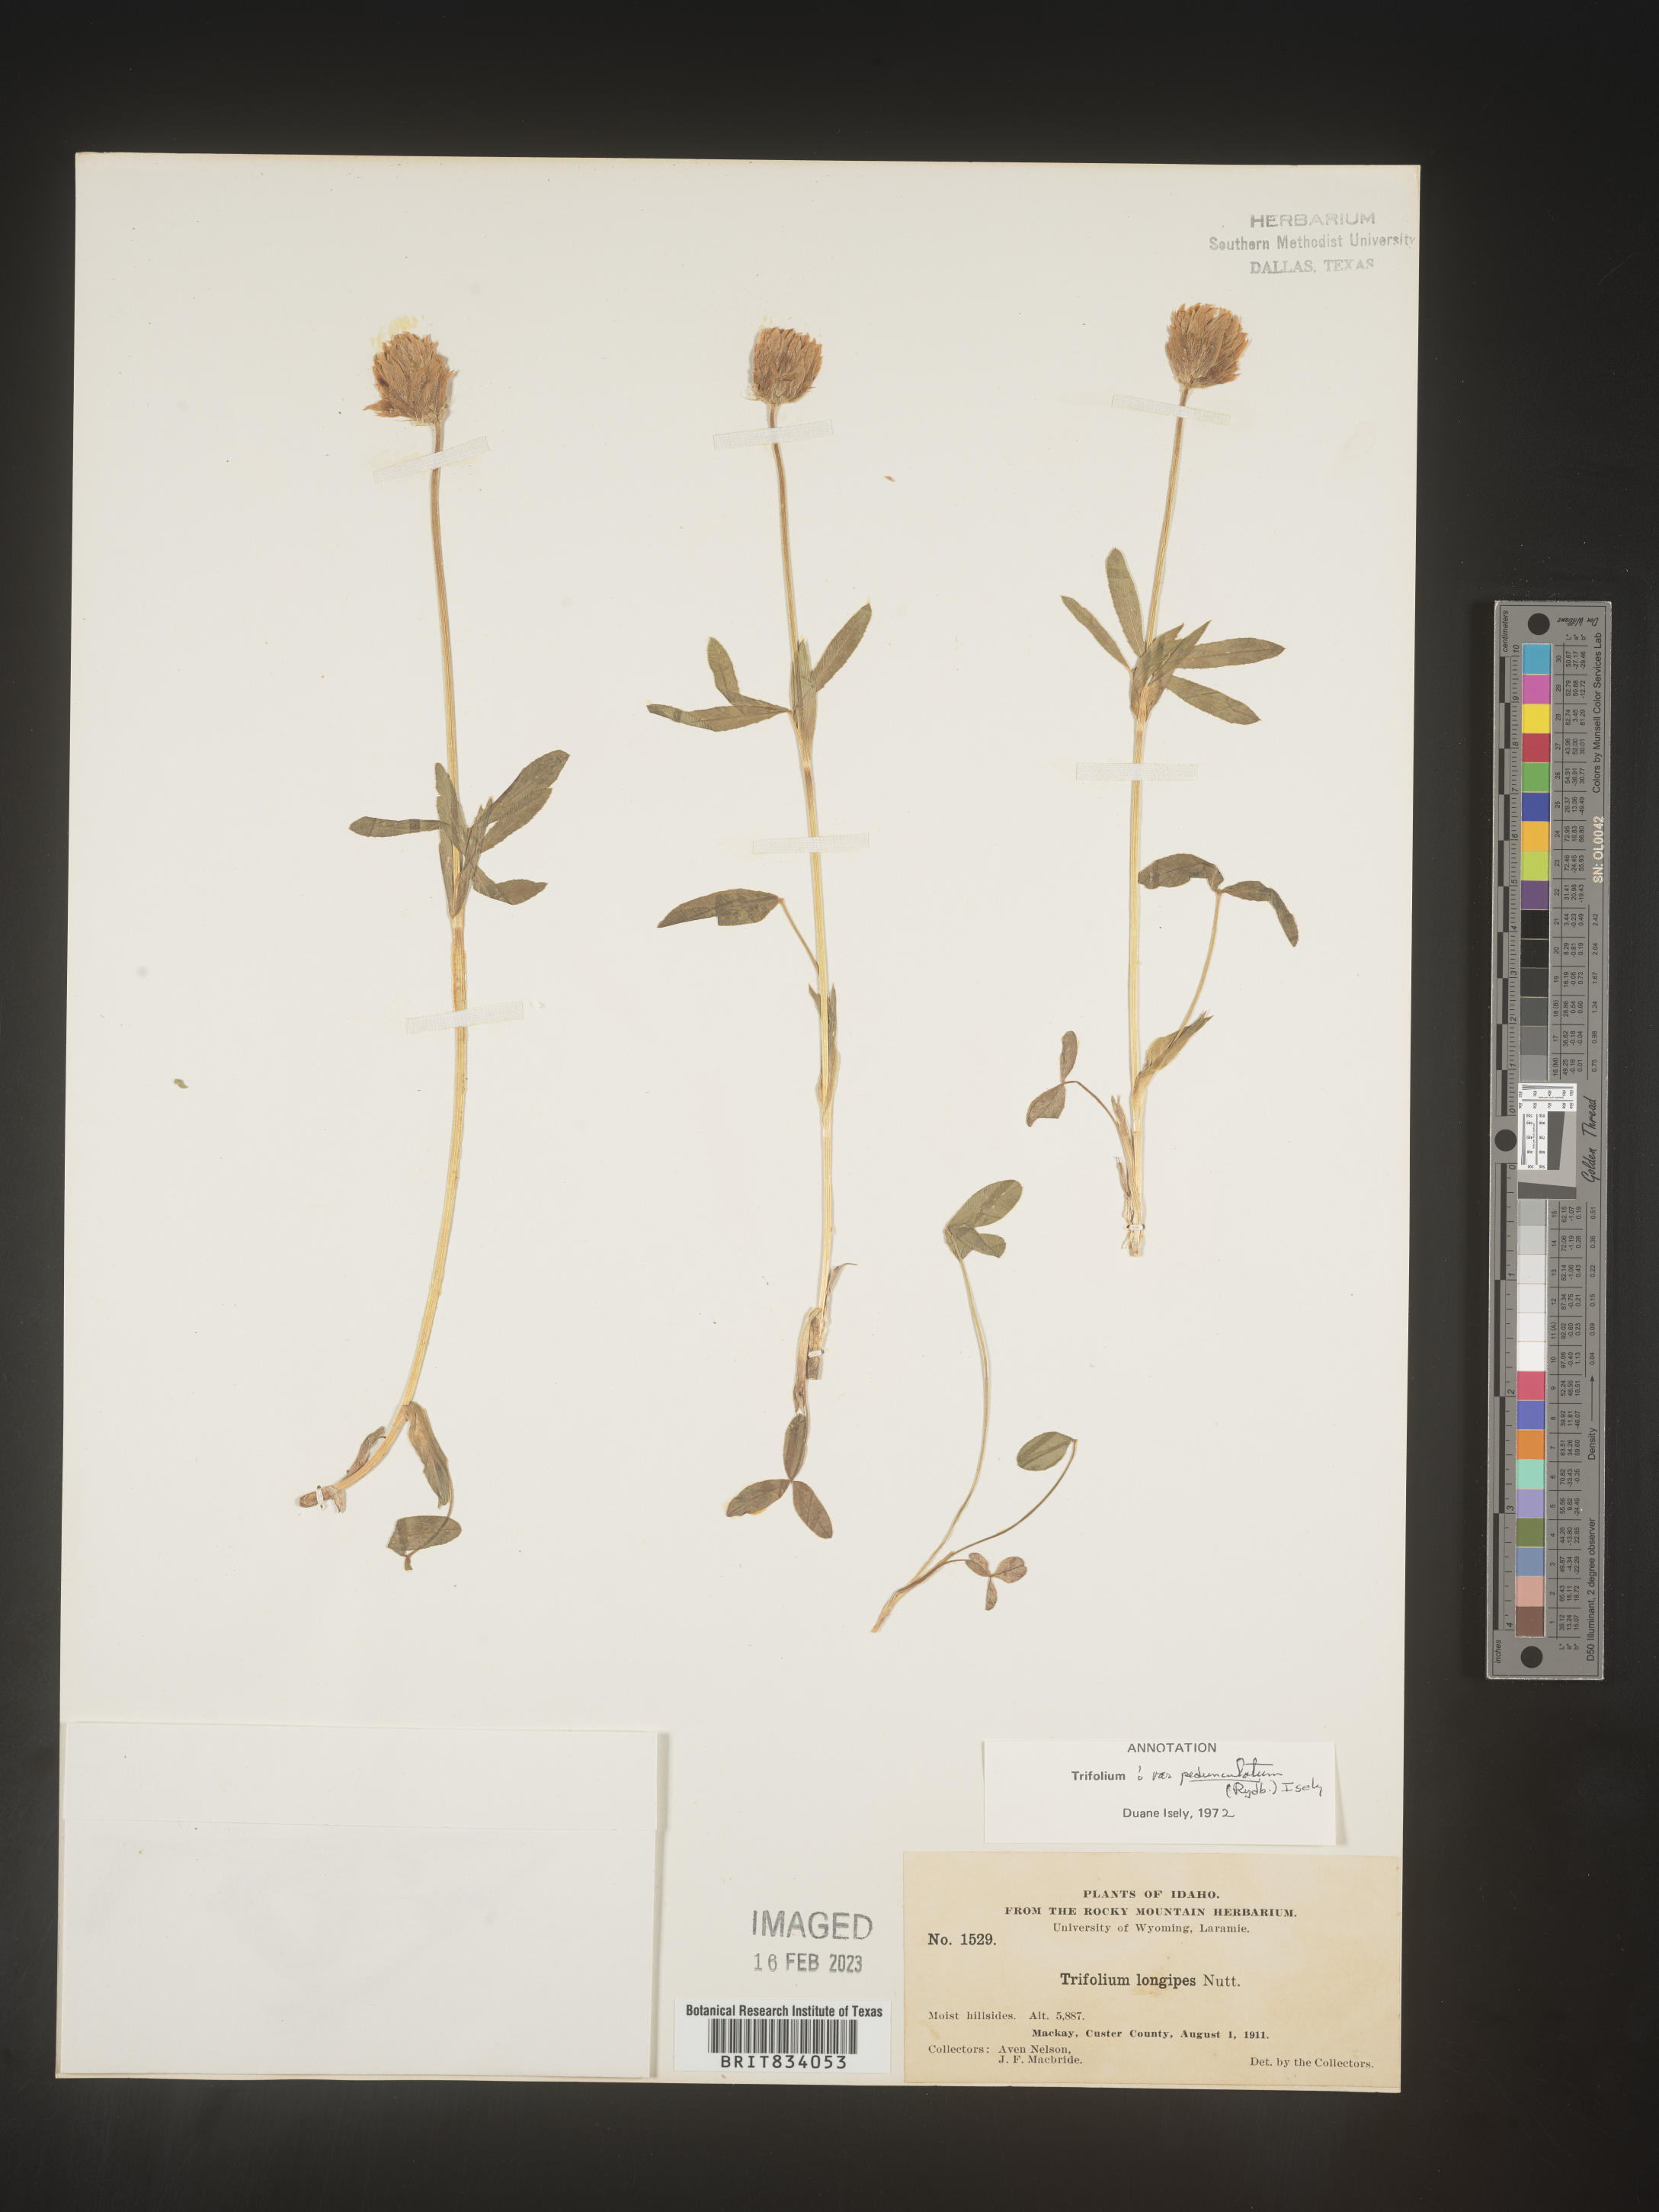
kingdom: Plantae
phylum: Tracheophyta
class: Magnoliopsida
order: Fabales
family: Fabaceae
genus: Trifolium
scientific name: Trifolium
